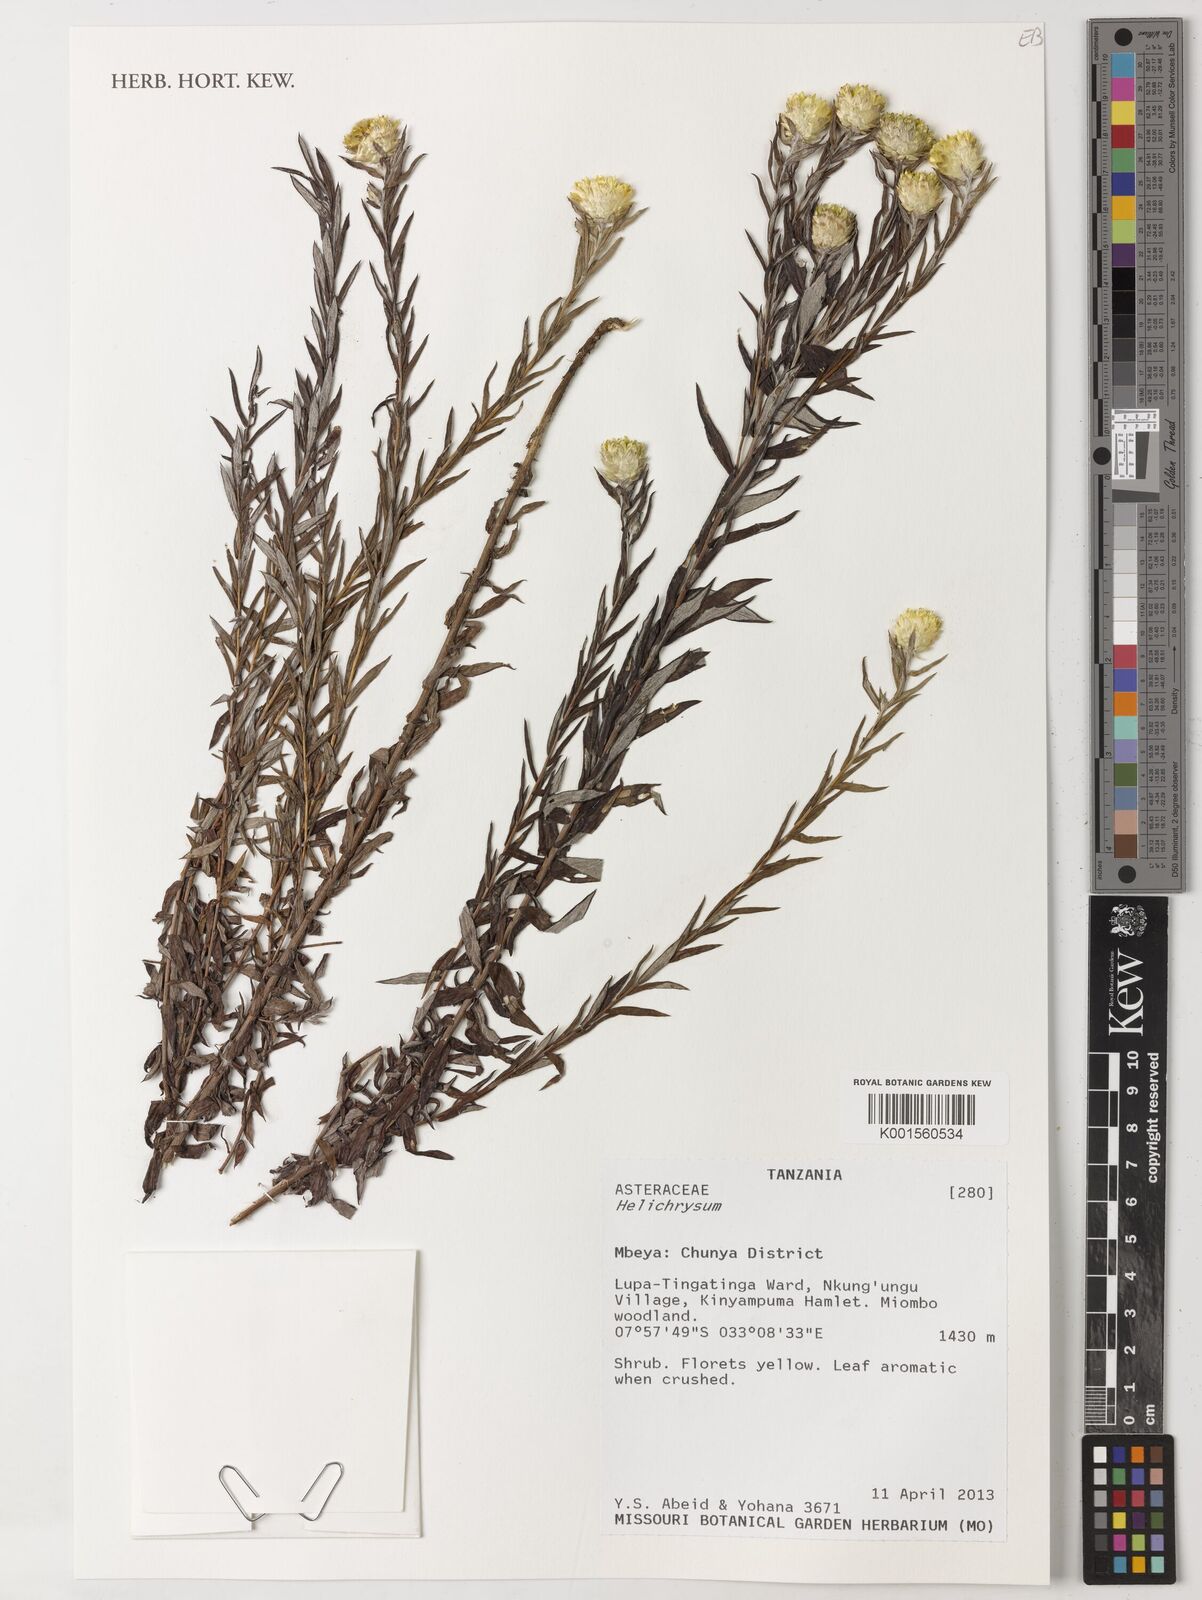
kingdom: Plantae
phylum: Tracheophyta
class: Magnoliopsida
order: Asterales
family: Asteraceae
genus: Helichrysum
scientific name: Helichrysum
